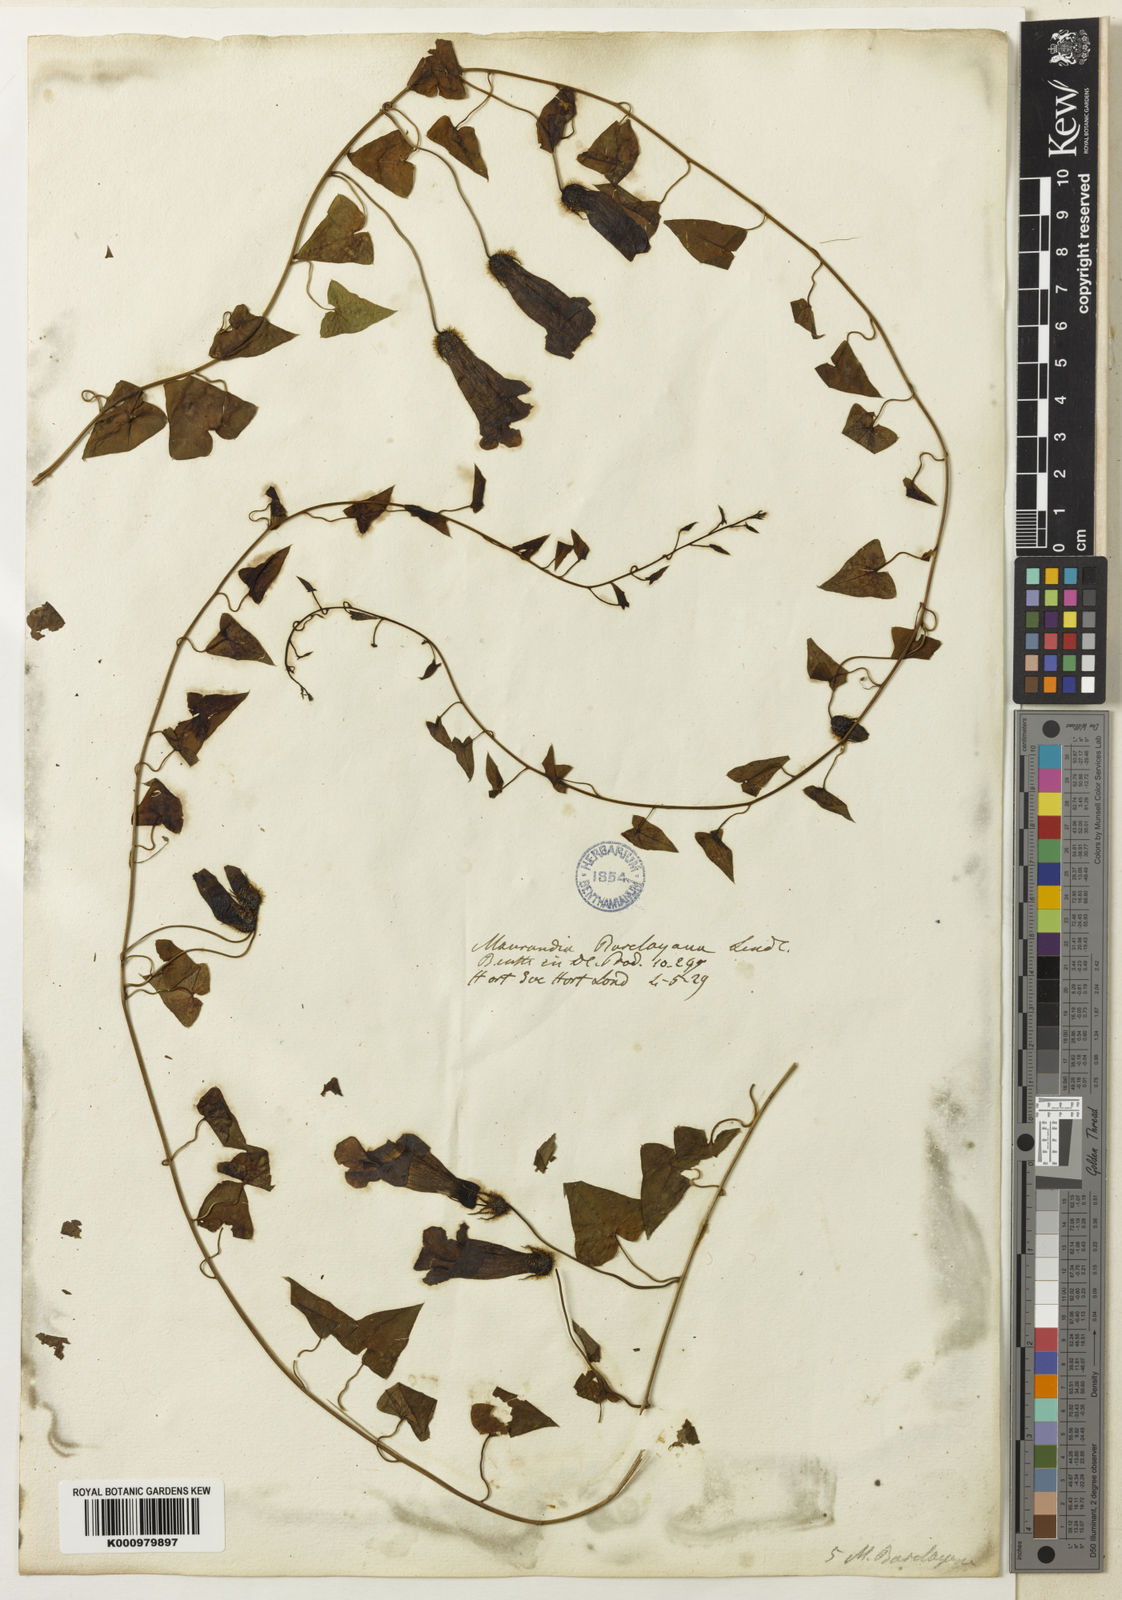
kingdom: Plantae
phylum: Tracheophyta
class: Magnoliopsida
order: Lamiales
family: Plantaginaceae
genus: Maurandya
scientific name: Maurandya barclayana
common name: Mexican viper
